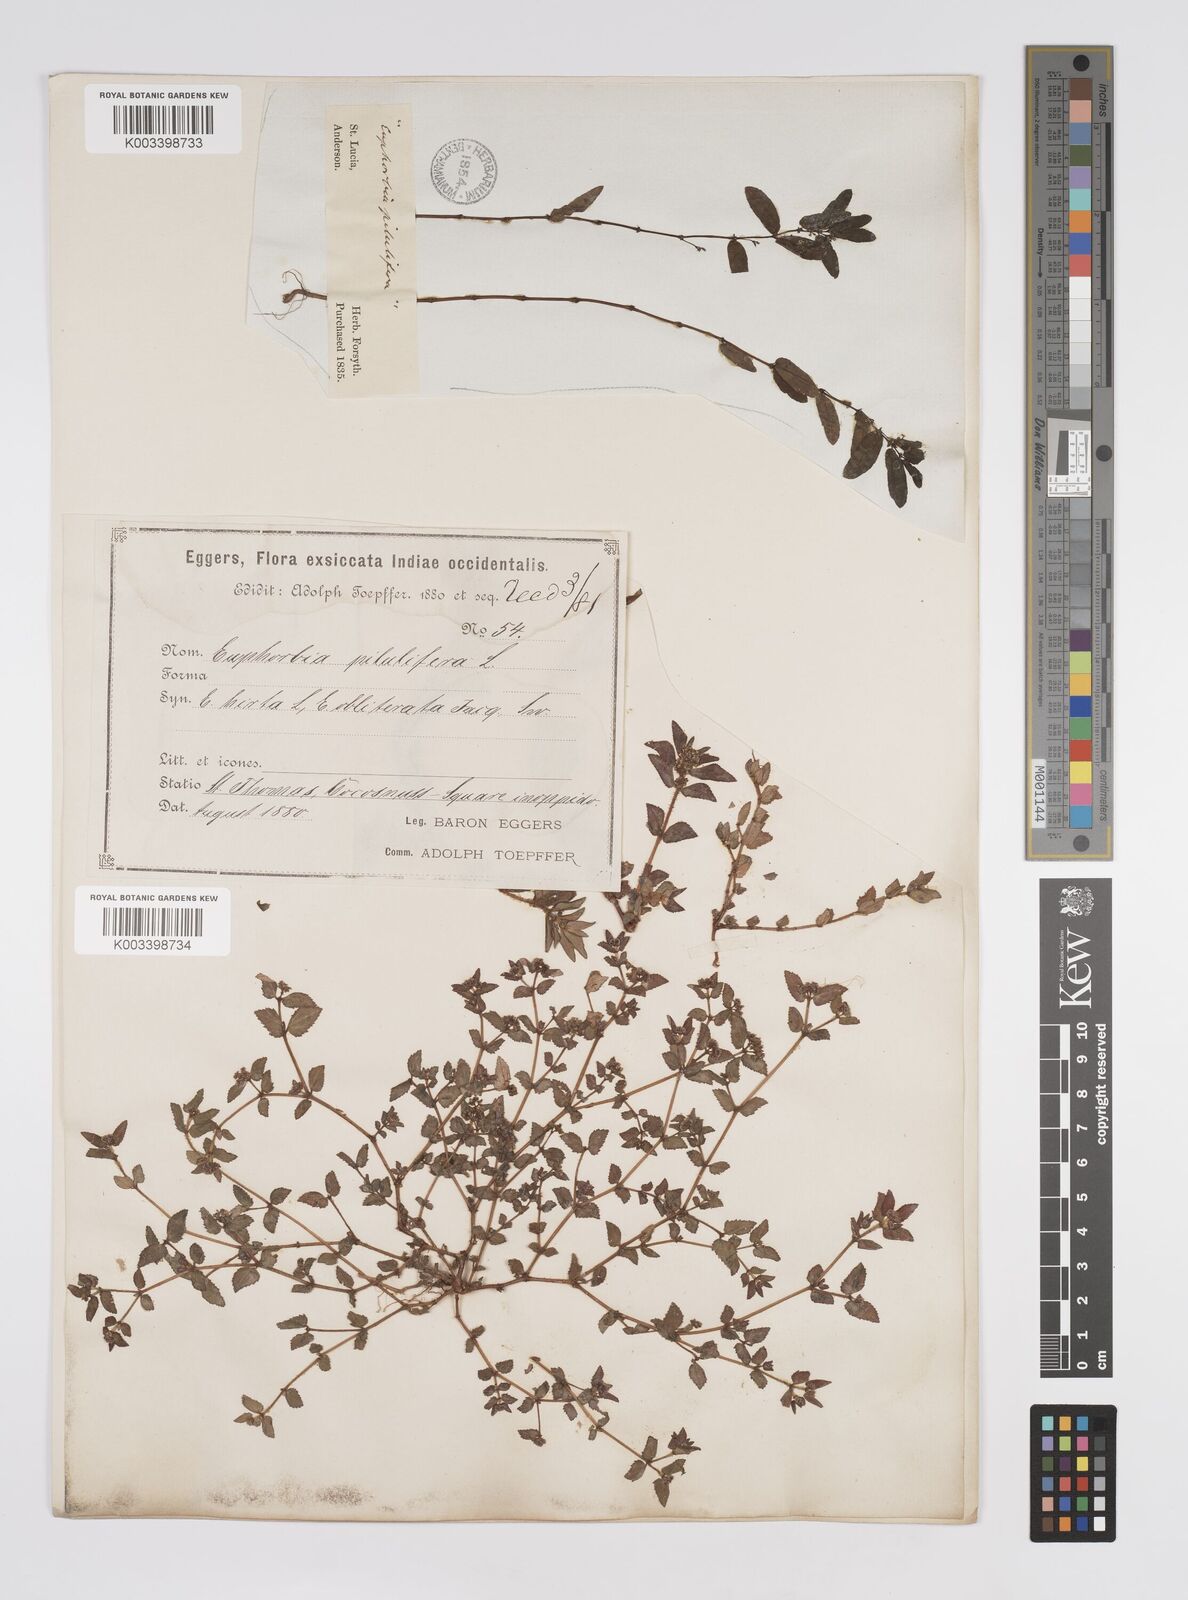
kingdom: Plantae
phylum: Tracheophyta
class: Magnoliopsida
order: Malpighiales
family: Euphorbiaceae
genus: Euphorbia
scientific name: Euphorbia hirta
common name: Pillpod sandmat
